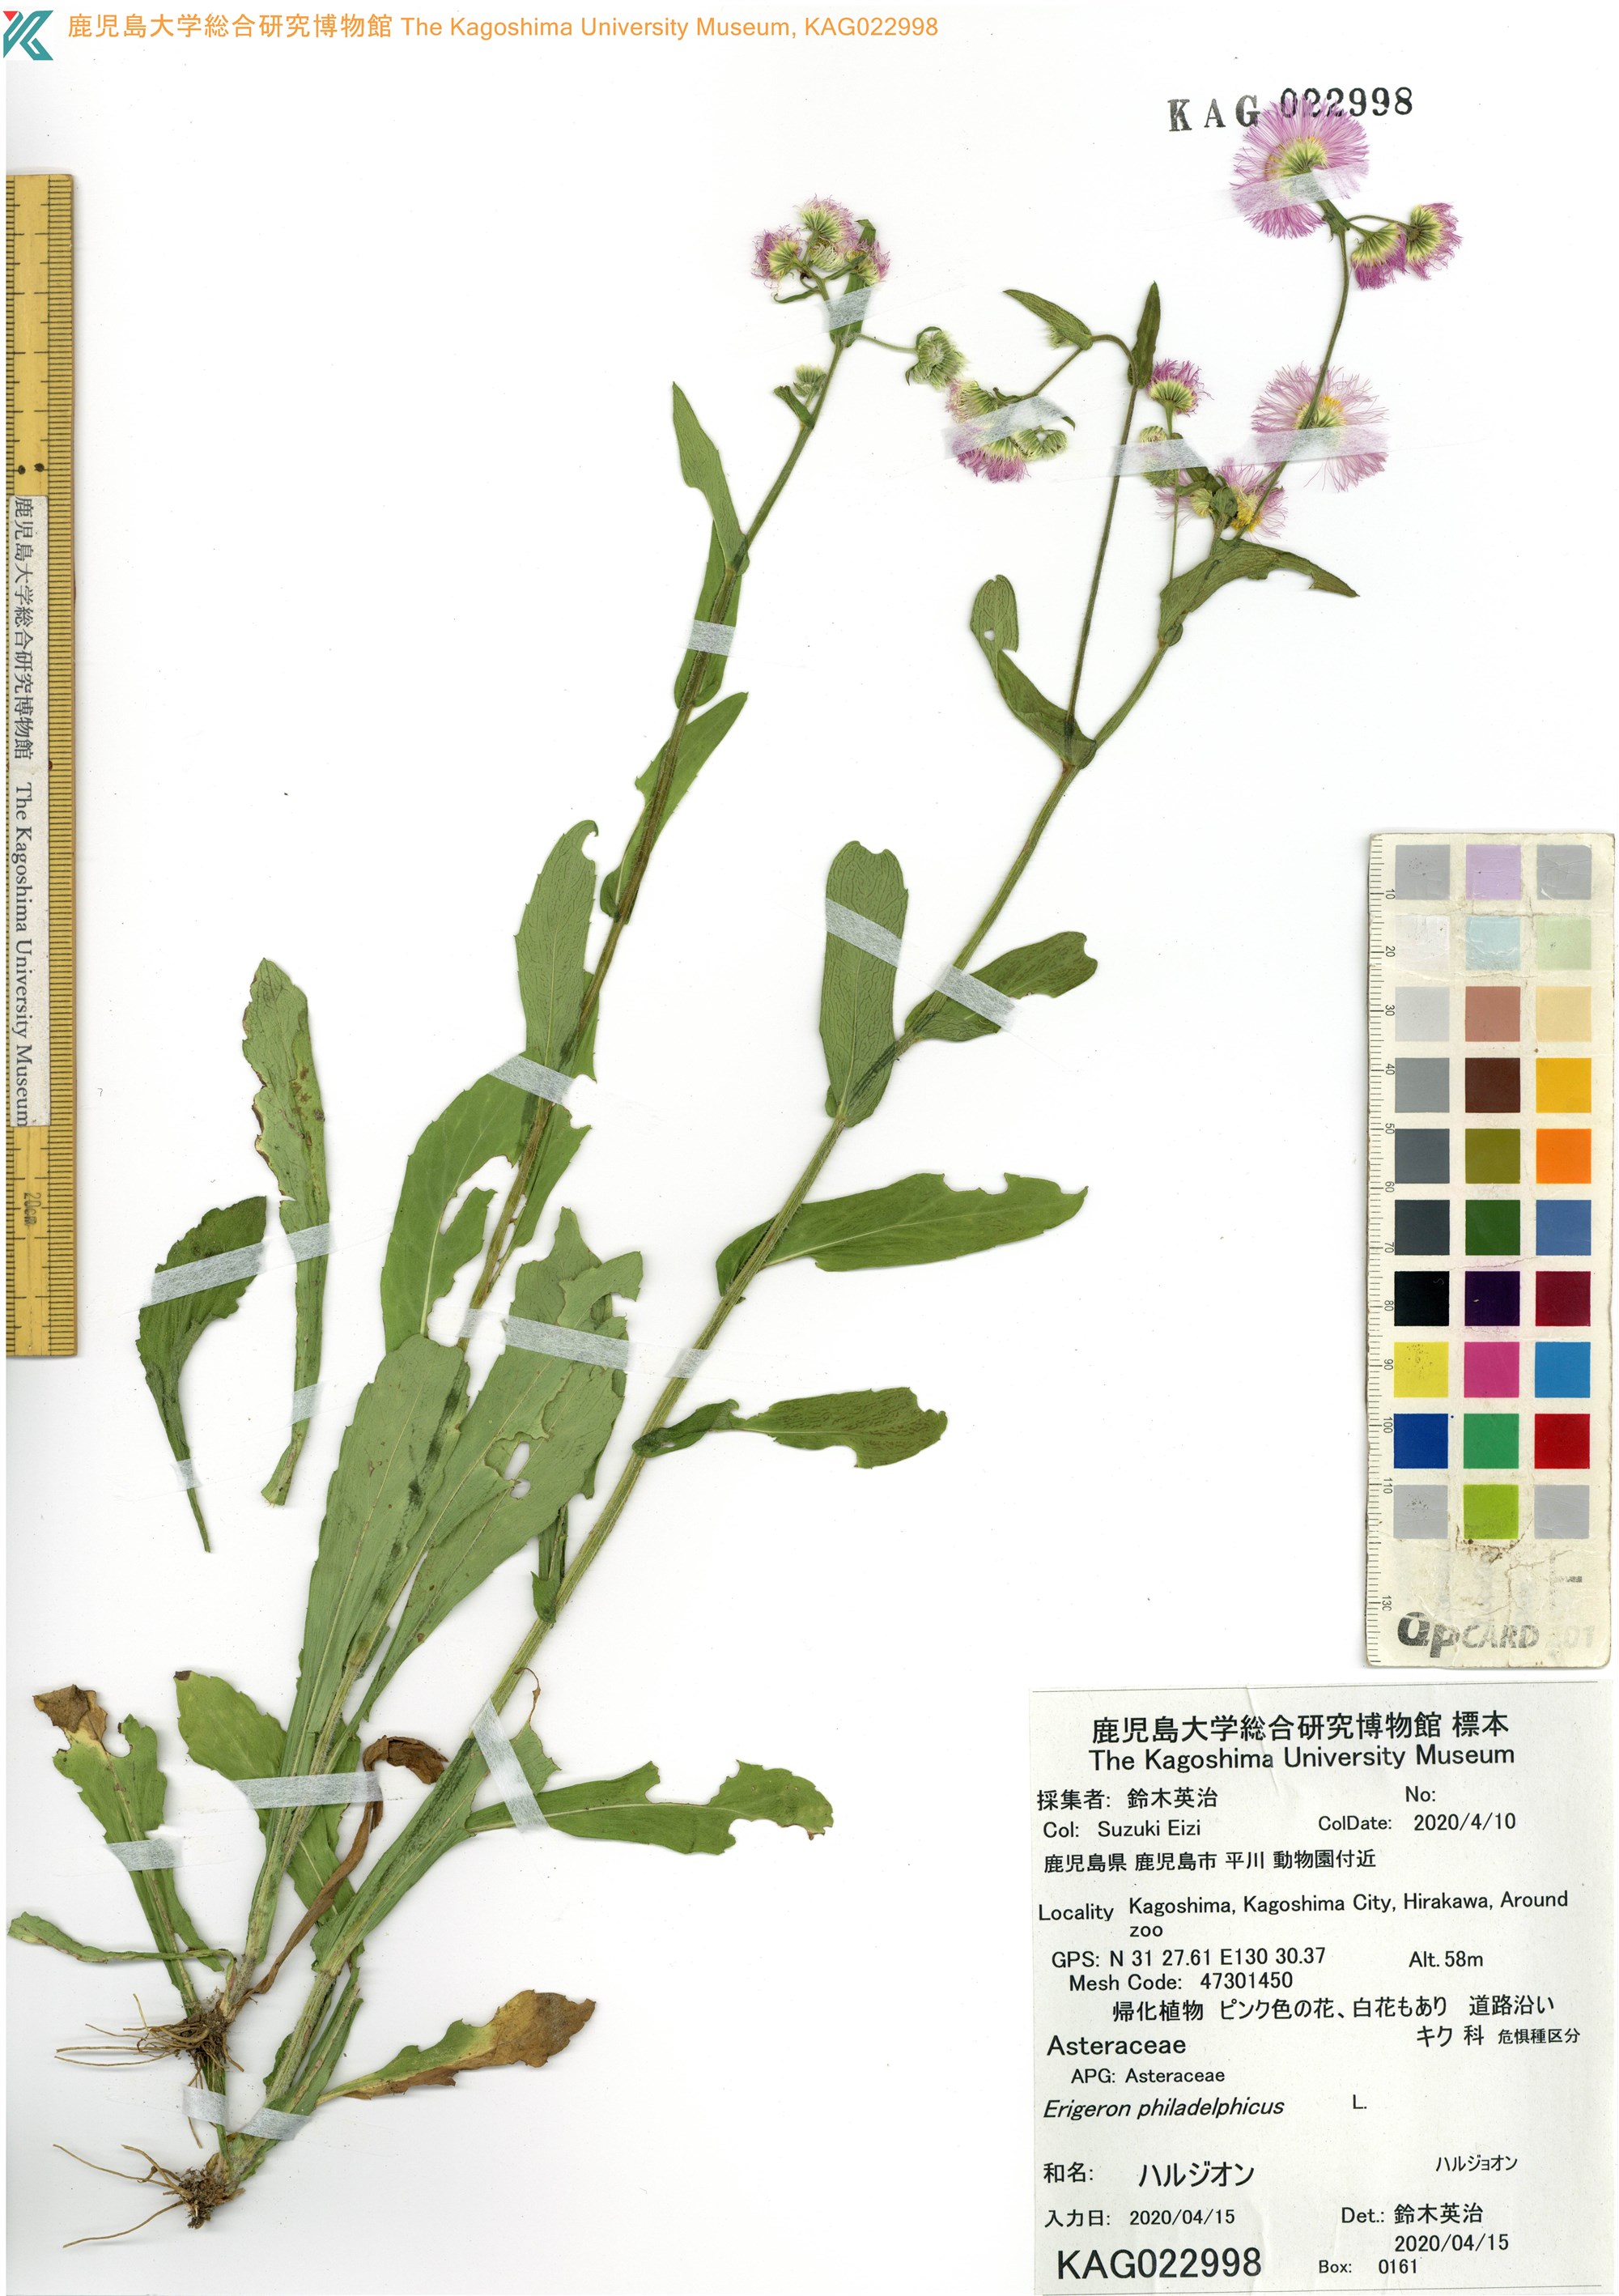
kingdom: Plantae
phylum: Tracheophyta
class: Magnoliopsida
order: Asterales
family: Asteraceae
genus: Erigeron
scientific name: Erigeron philadelphicus
